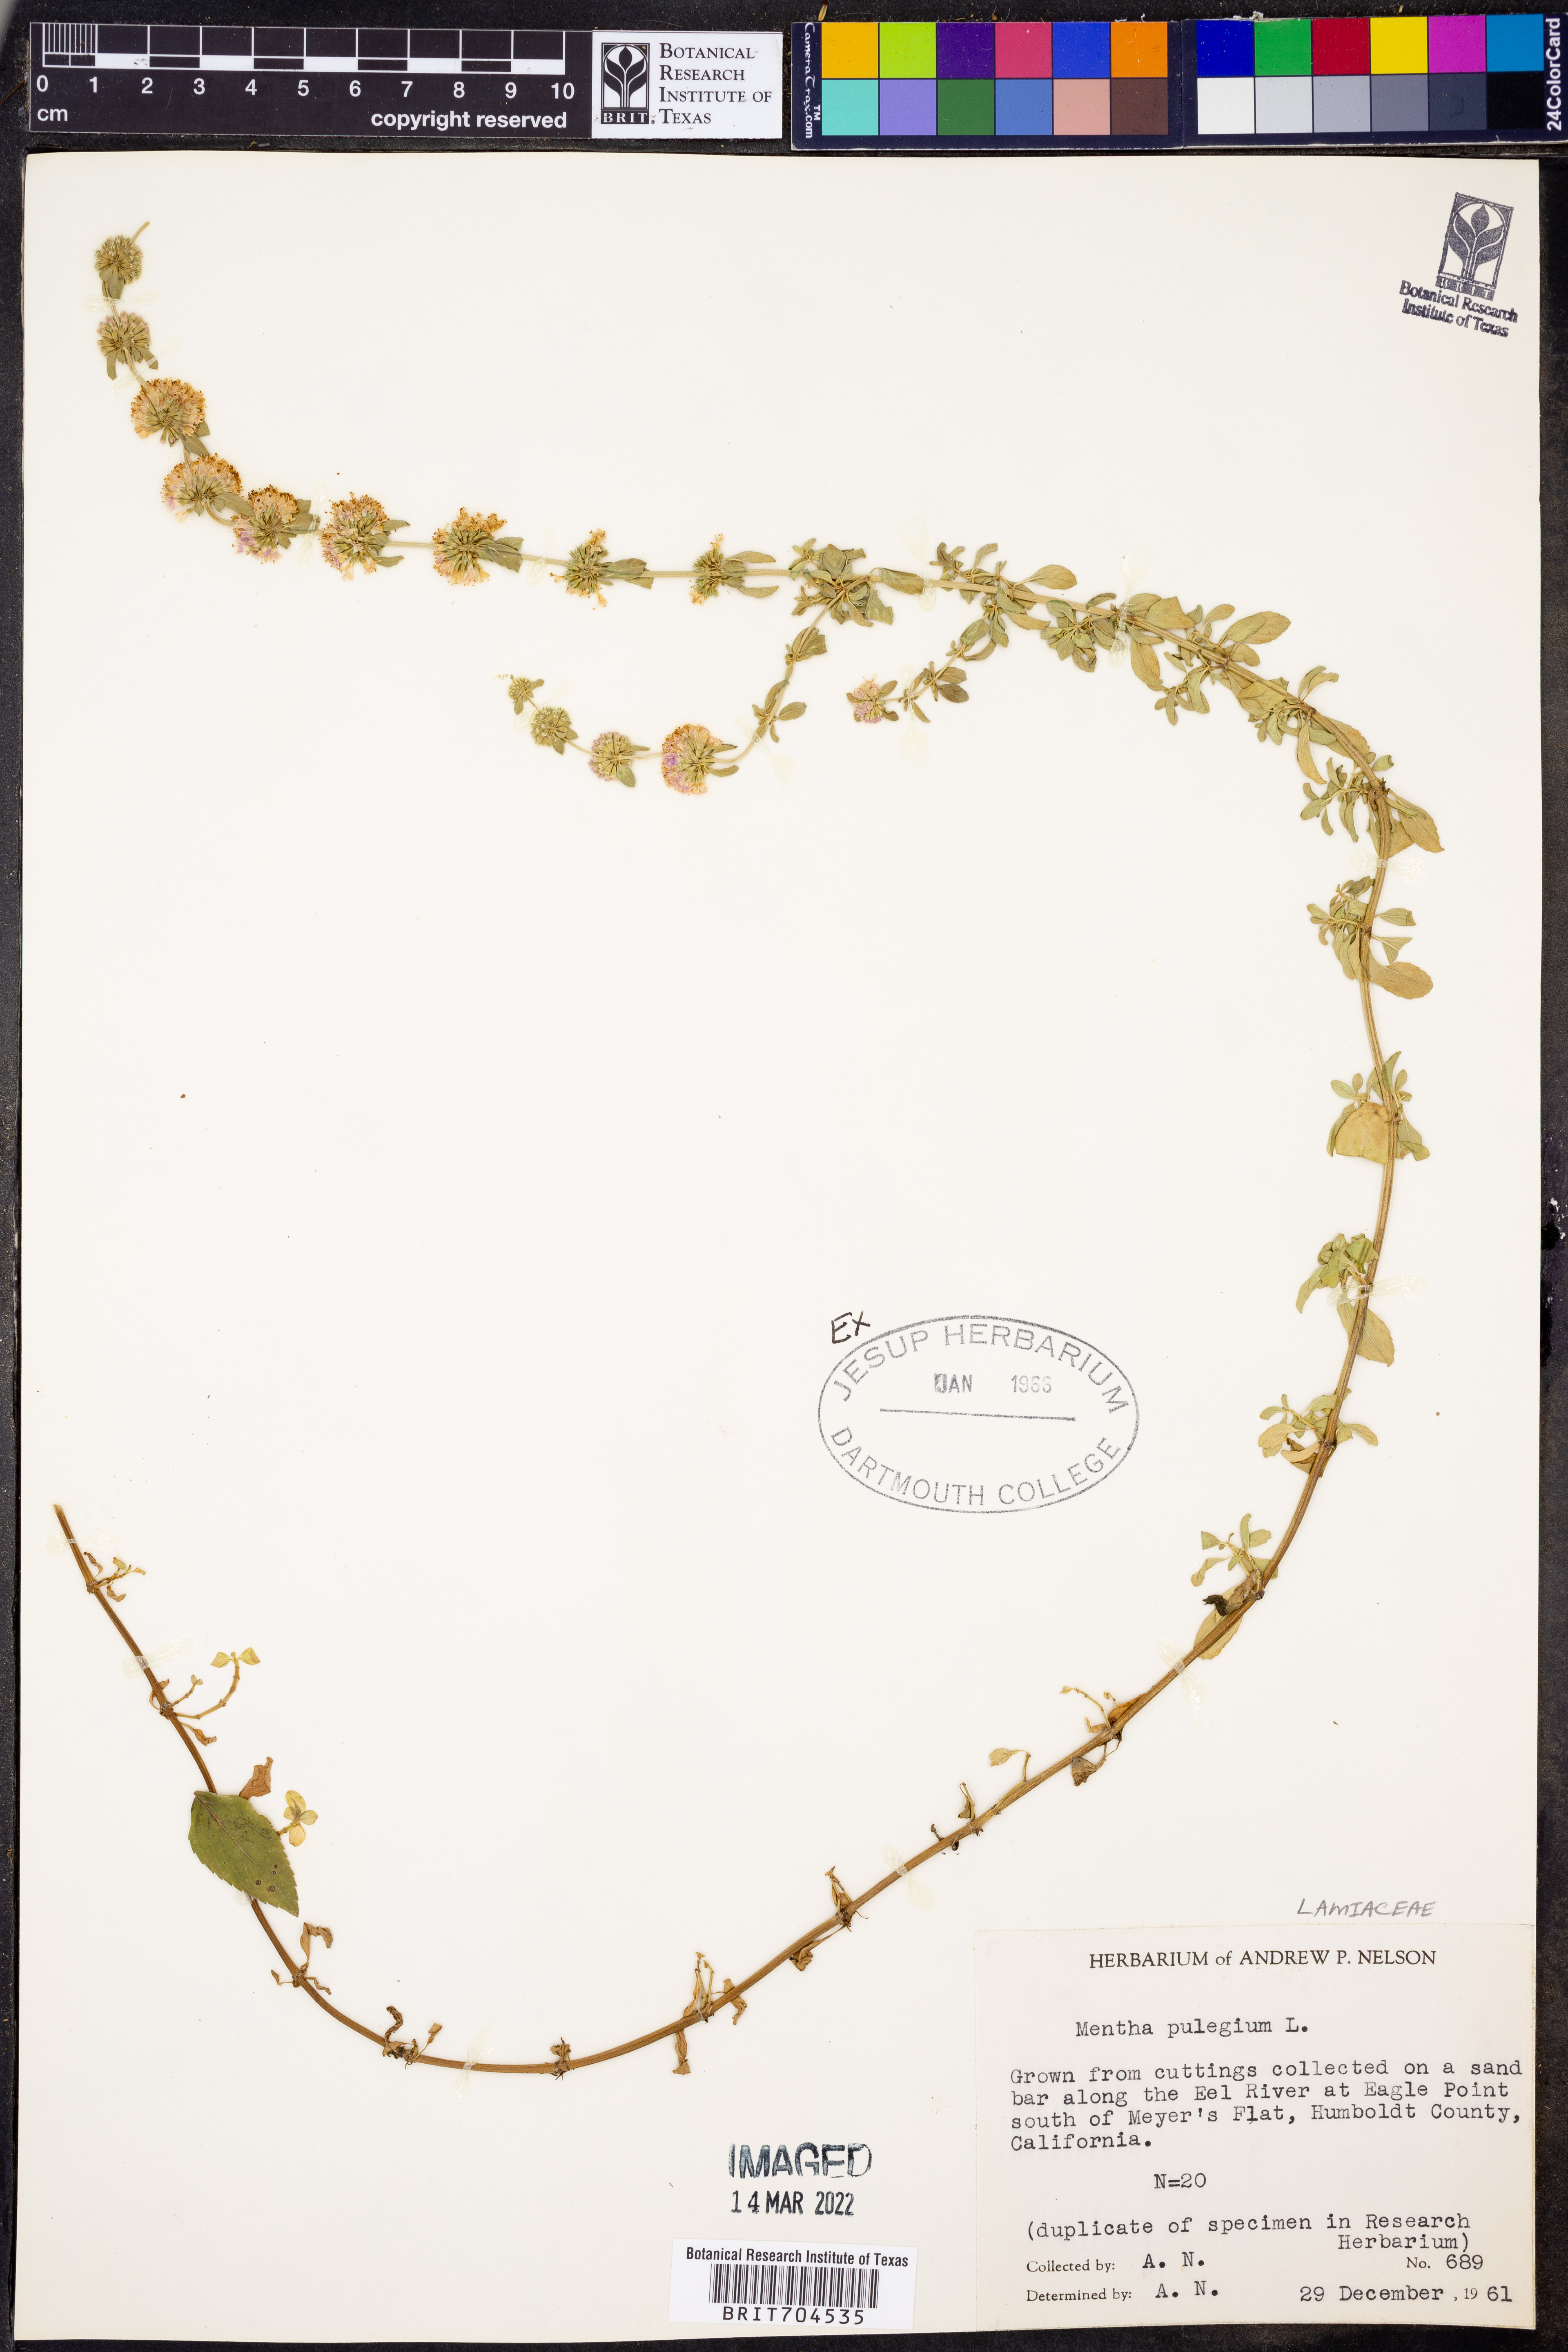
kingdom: Plantae
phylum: Tracheophyta
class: Magnoliopsida
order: Lamiales
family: Lamiaceae
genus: Mentha
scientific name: Mentha
